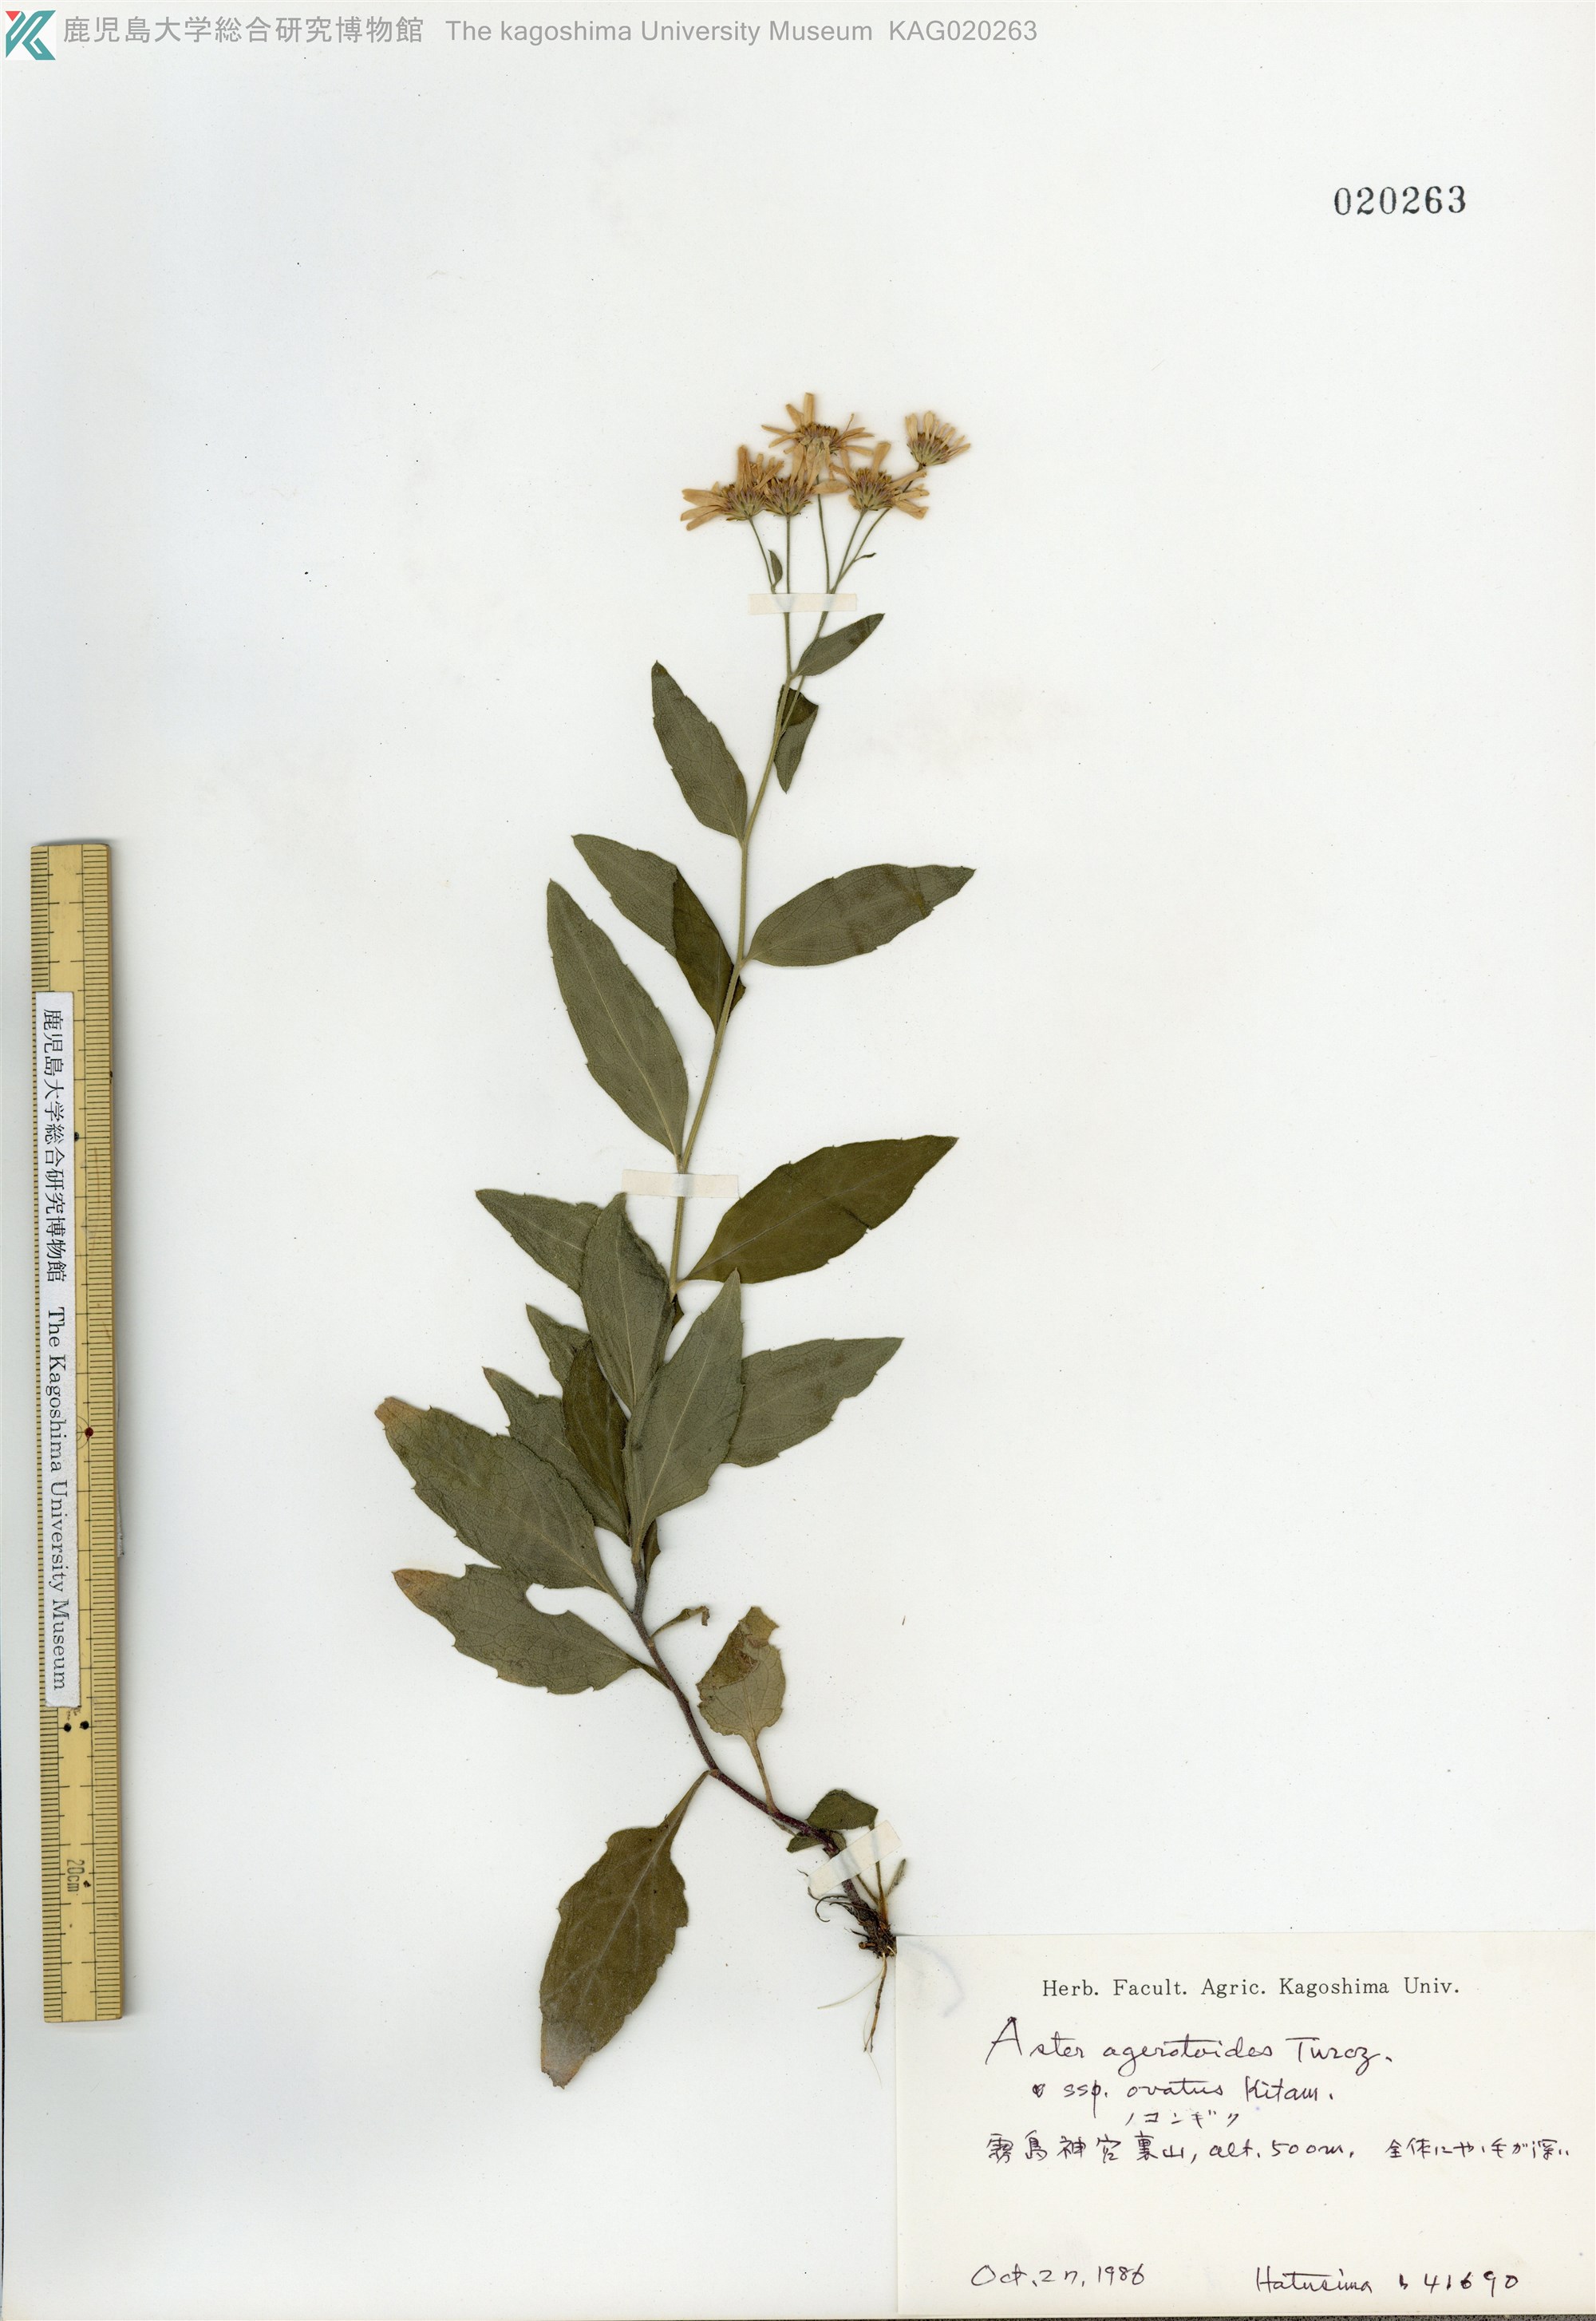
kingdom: Plantae
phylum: Tracheophyta
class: Magnoliopsida
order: Asterales
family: Asteraceae
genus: Aster
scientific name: Aster microcephalus
